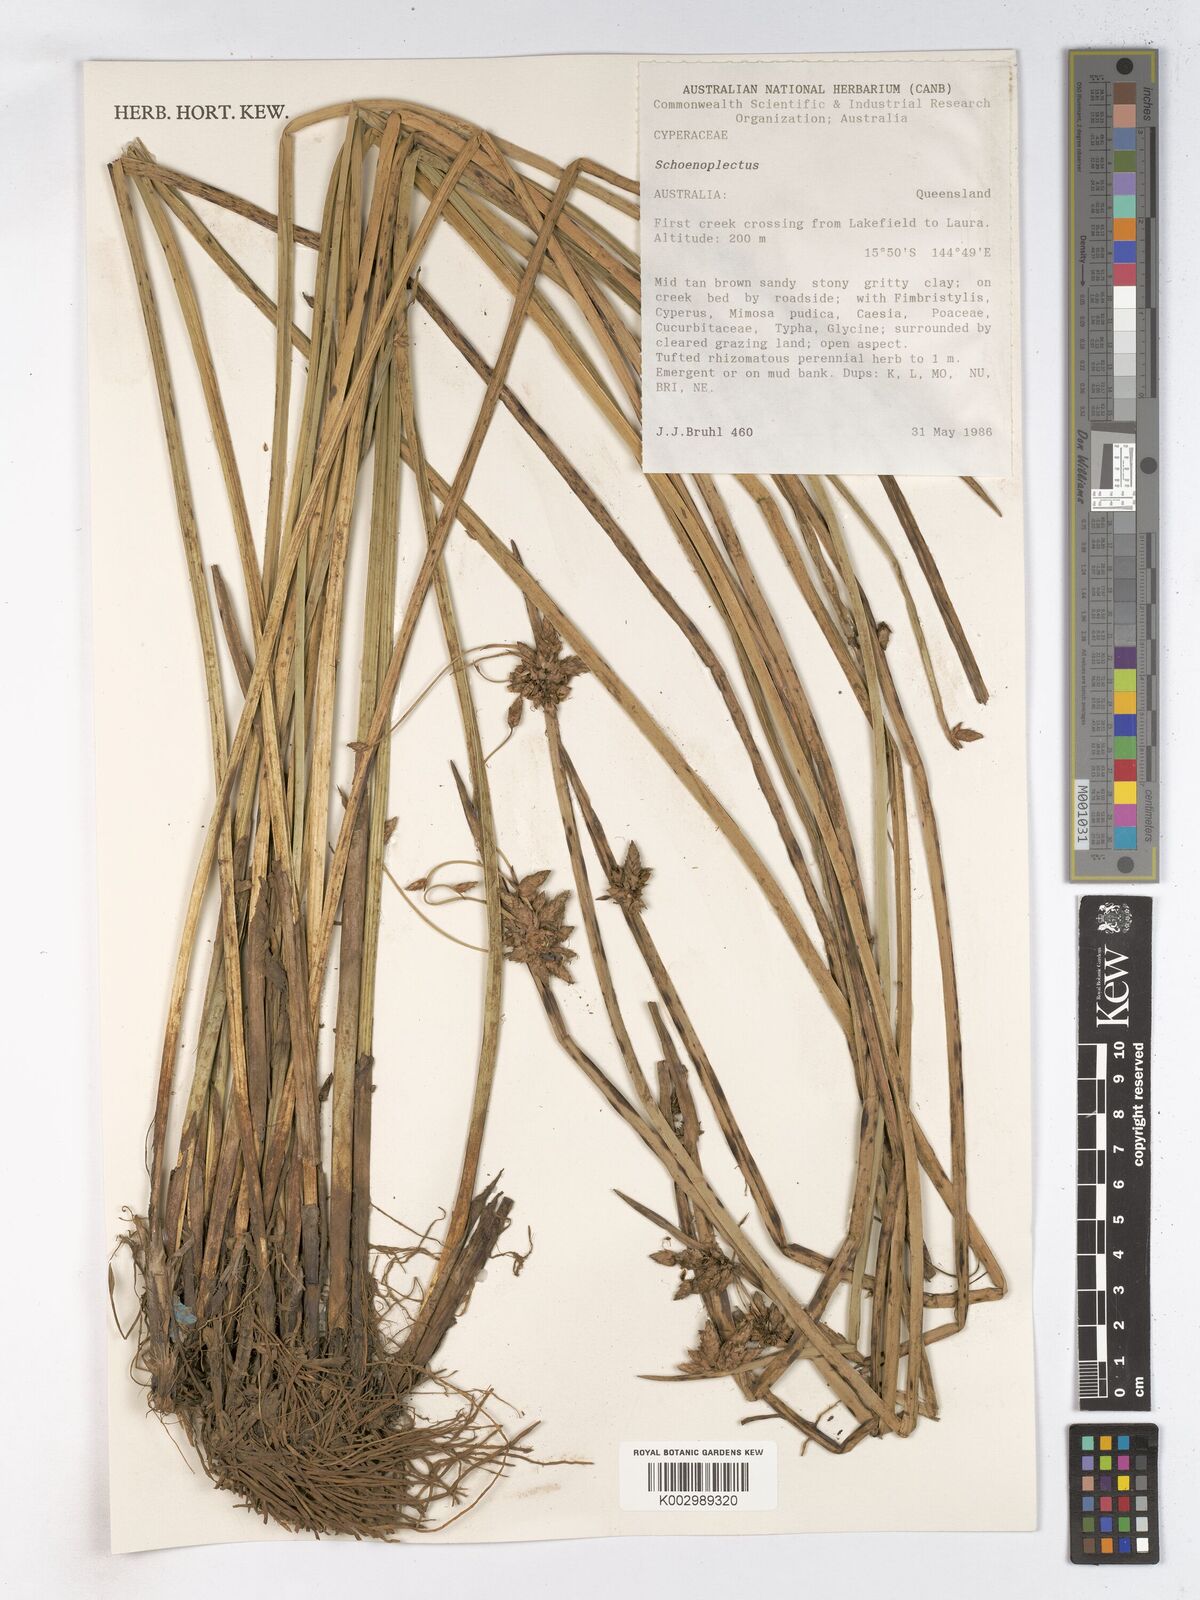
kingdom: Plantae
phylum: Tracheophyta
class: Liliopsida
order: Poales
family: Cyperaceae
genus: Schoenoplectus
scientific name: Schoenoplectus
